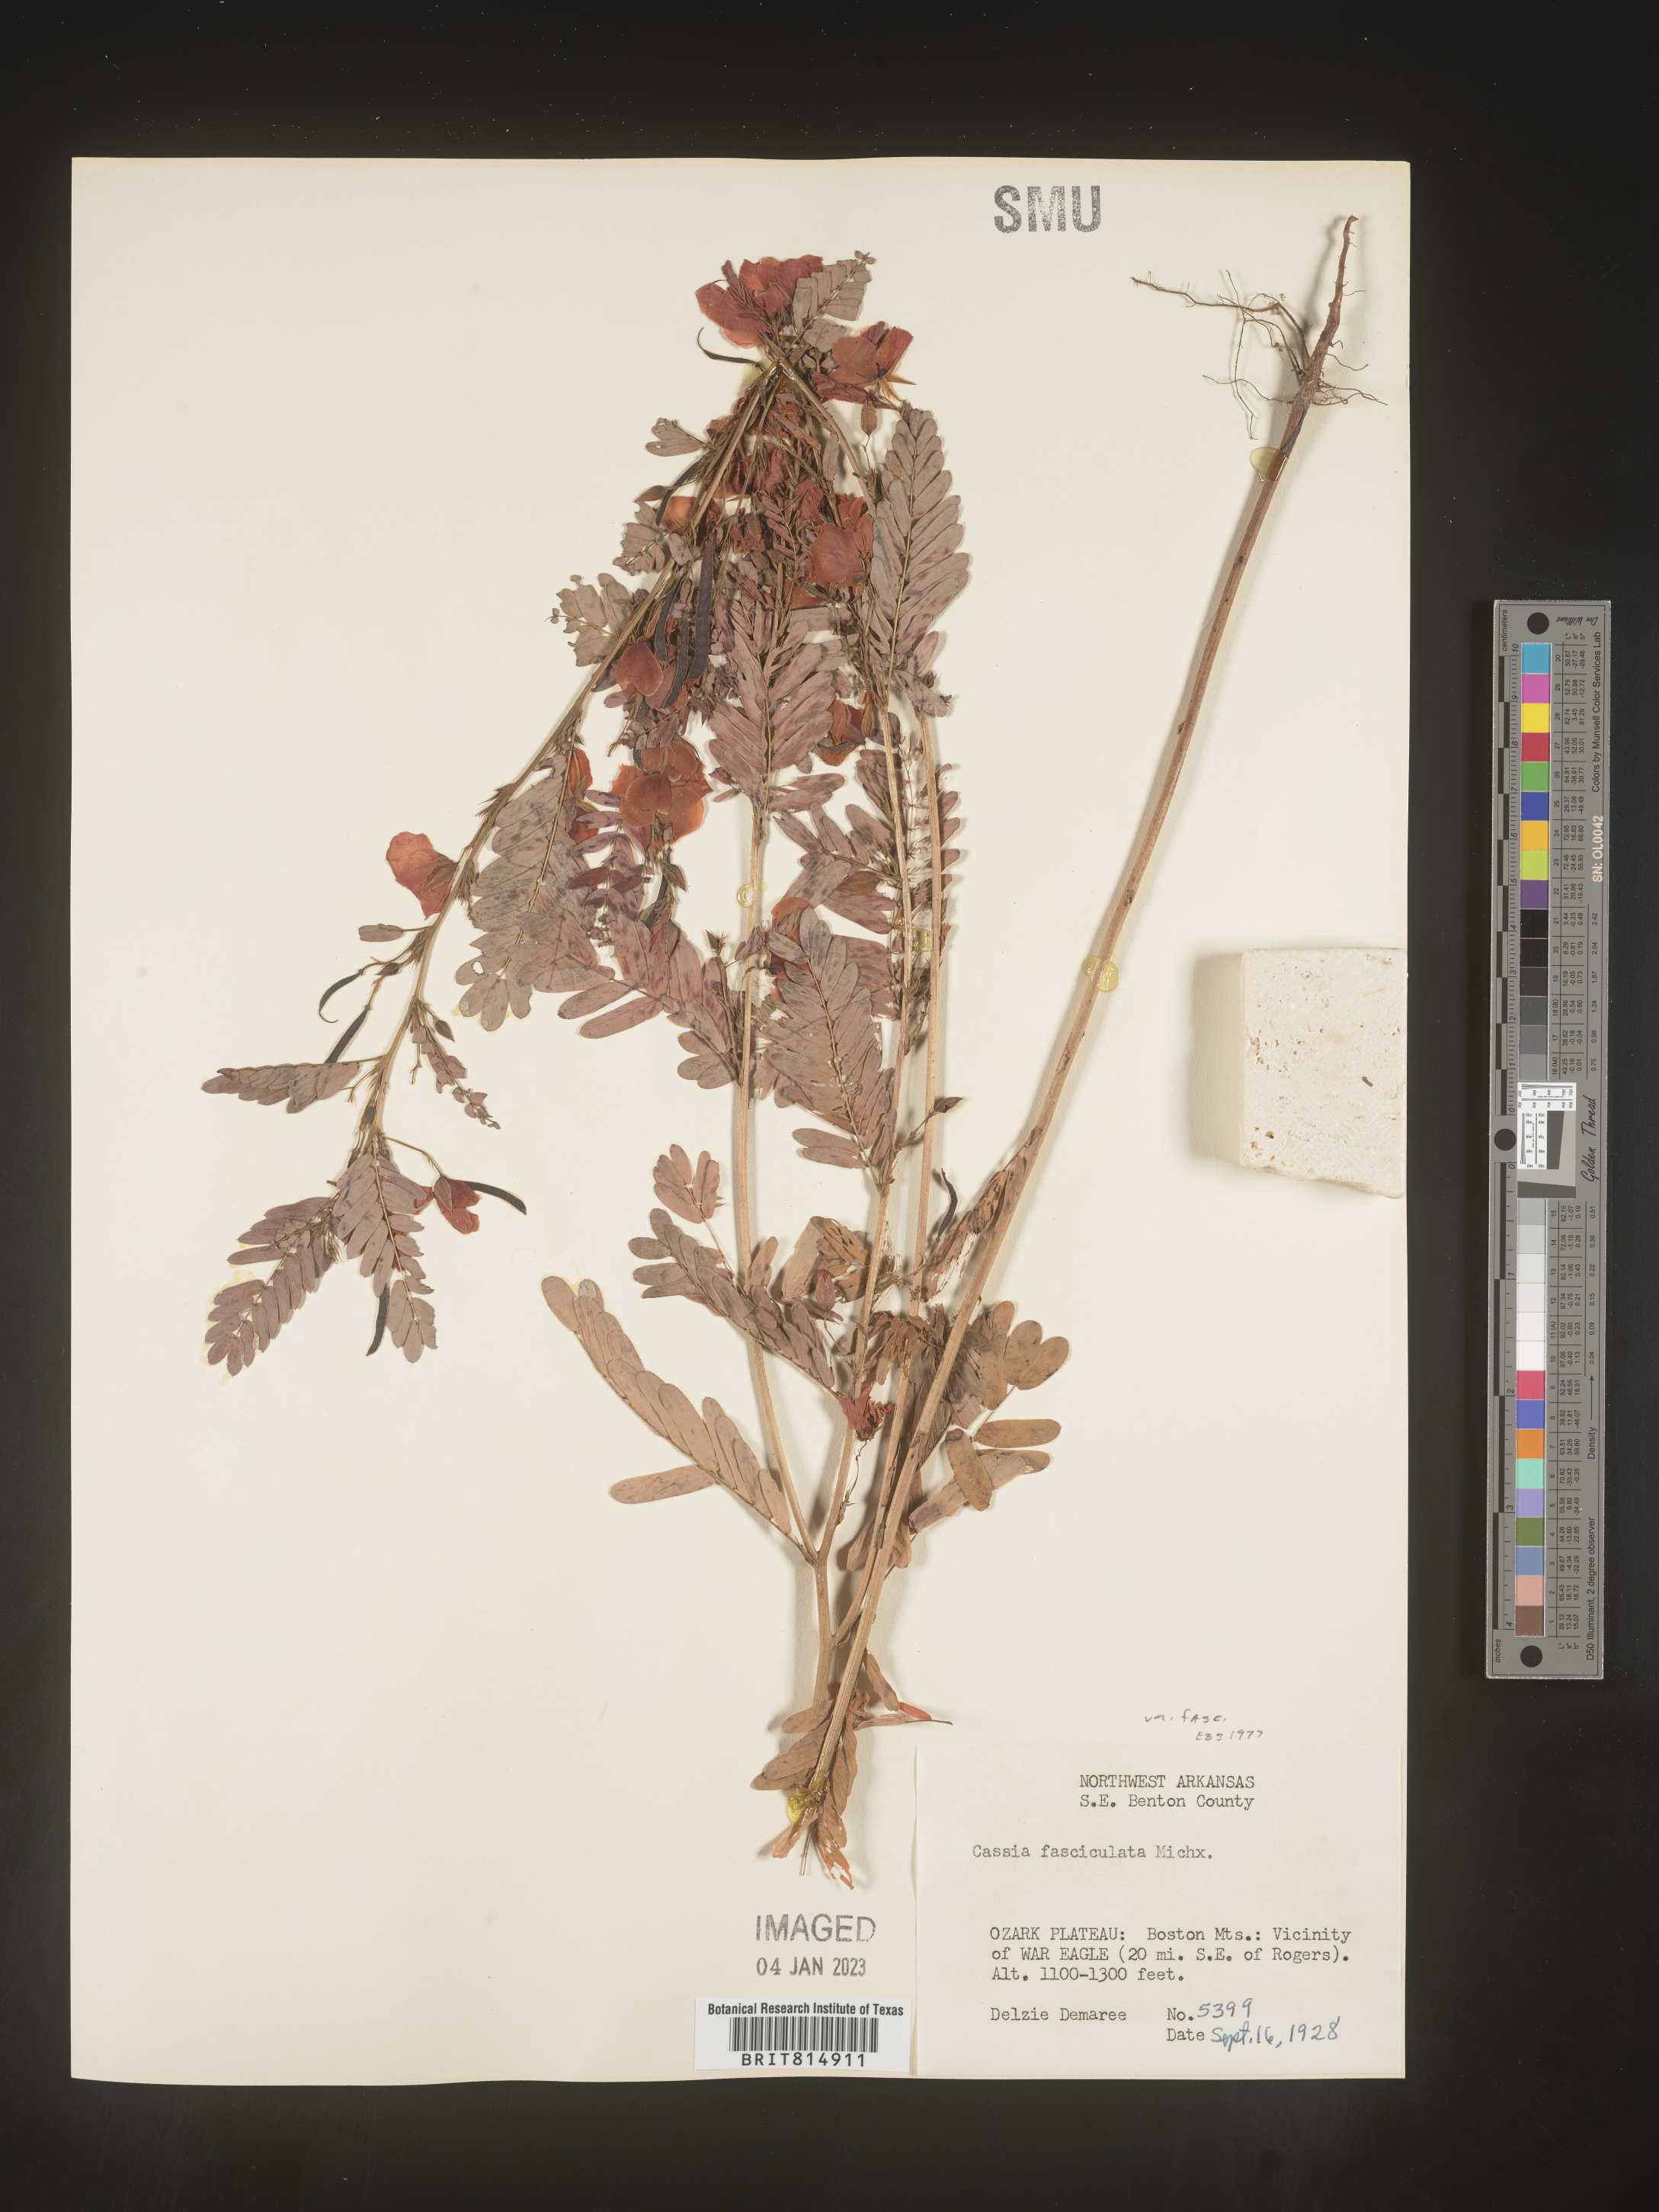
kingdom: Plantae
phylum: Tracheophyta
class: Magnoliopsida
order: Fabales
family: Fabaceae
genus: Chamaecrista
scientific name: Chamaecrista fasciculata
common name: Golden cassia
